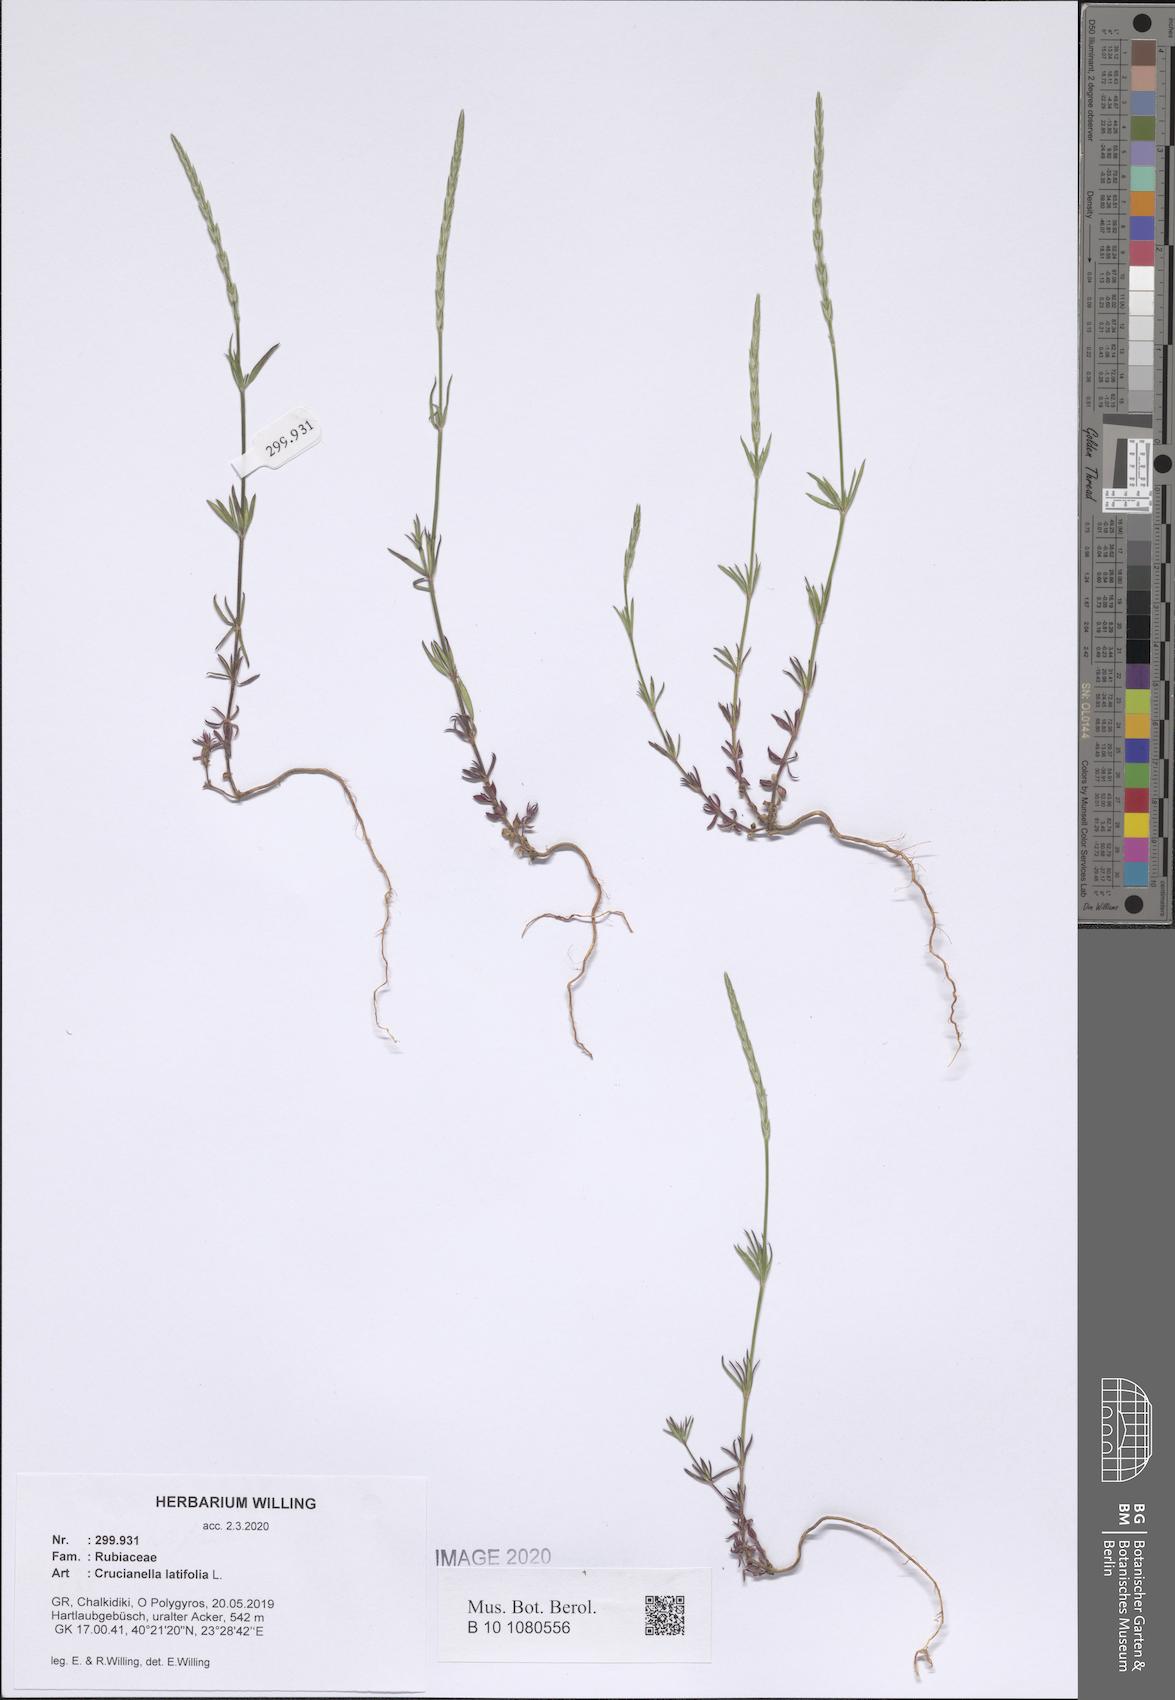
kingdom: Plantae
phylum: Tracheophyta
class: Magnoliopsida
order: Gentianales
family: Rubiaceae
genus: Crucianella
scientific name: Crucianella latifolia
